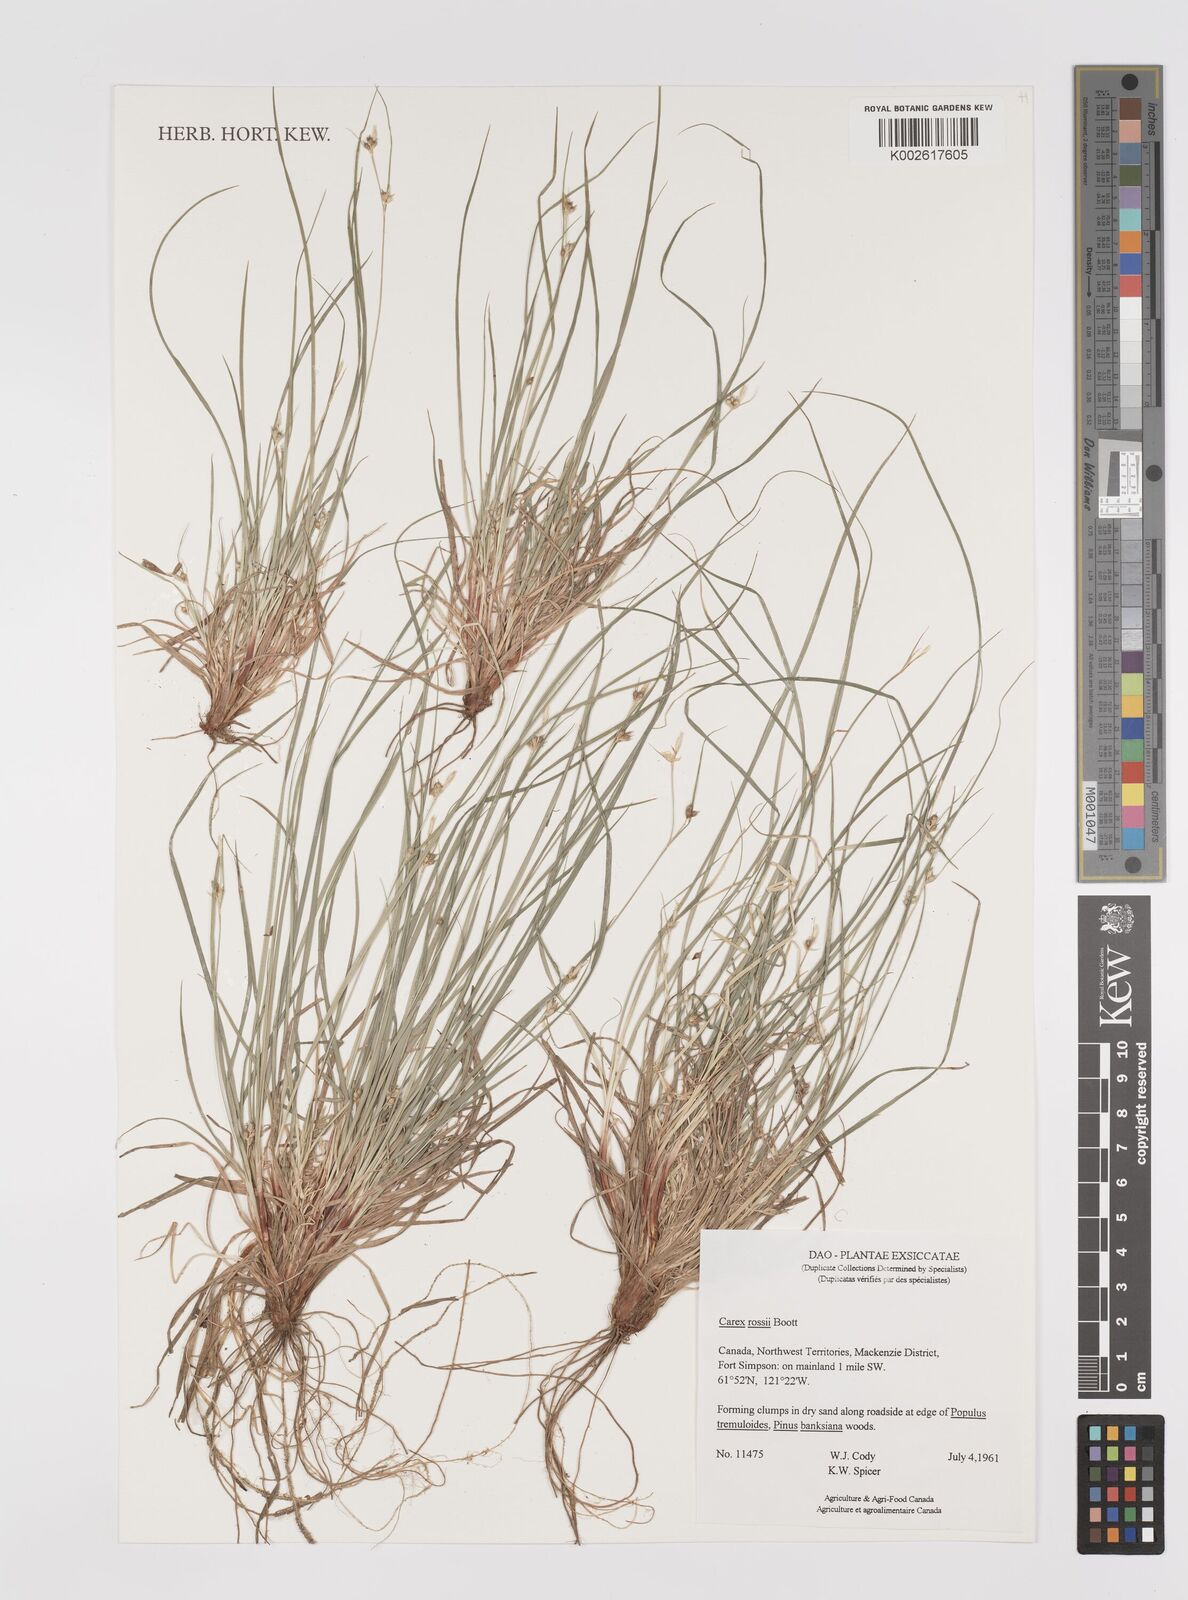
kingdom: Plantae
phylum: Tracheophyta
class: Liliopsida
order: Poales
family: Cyperaceae
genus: Carex
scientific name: Carex rossii
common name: Ross' sedge
